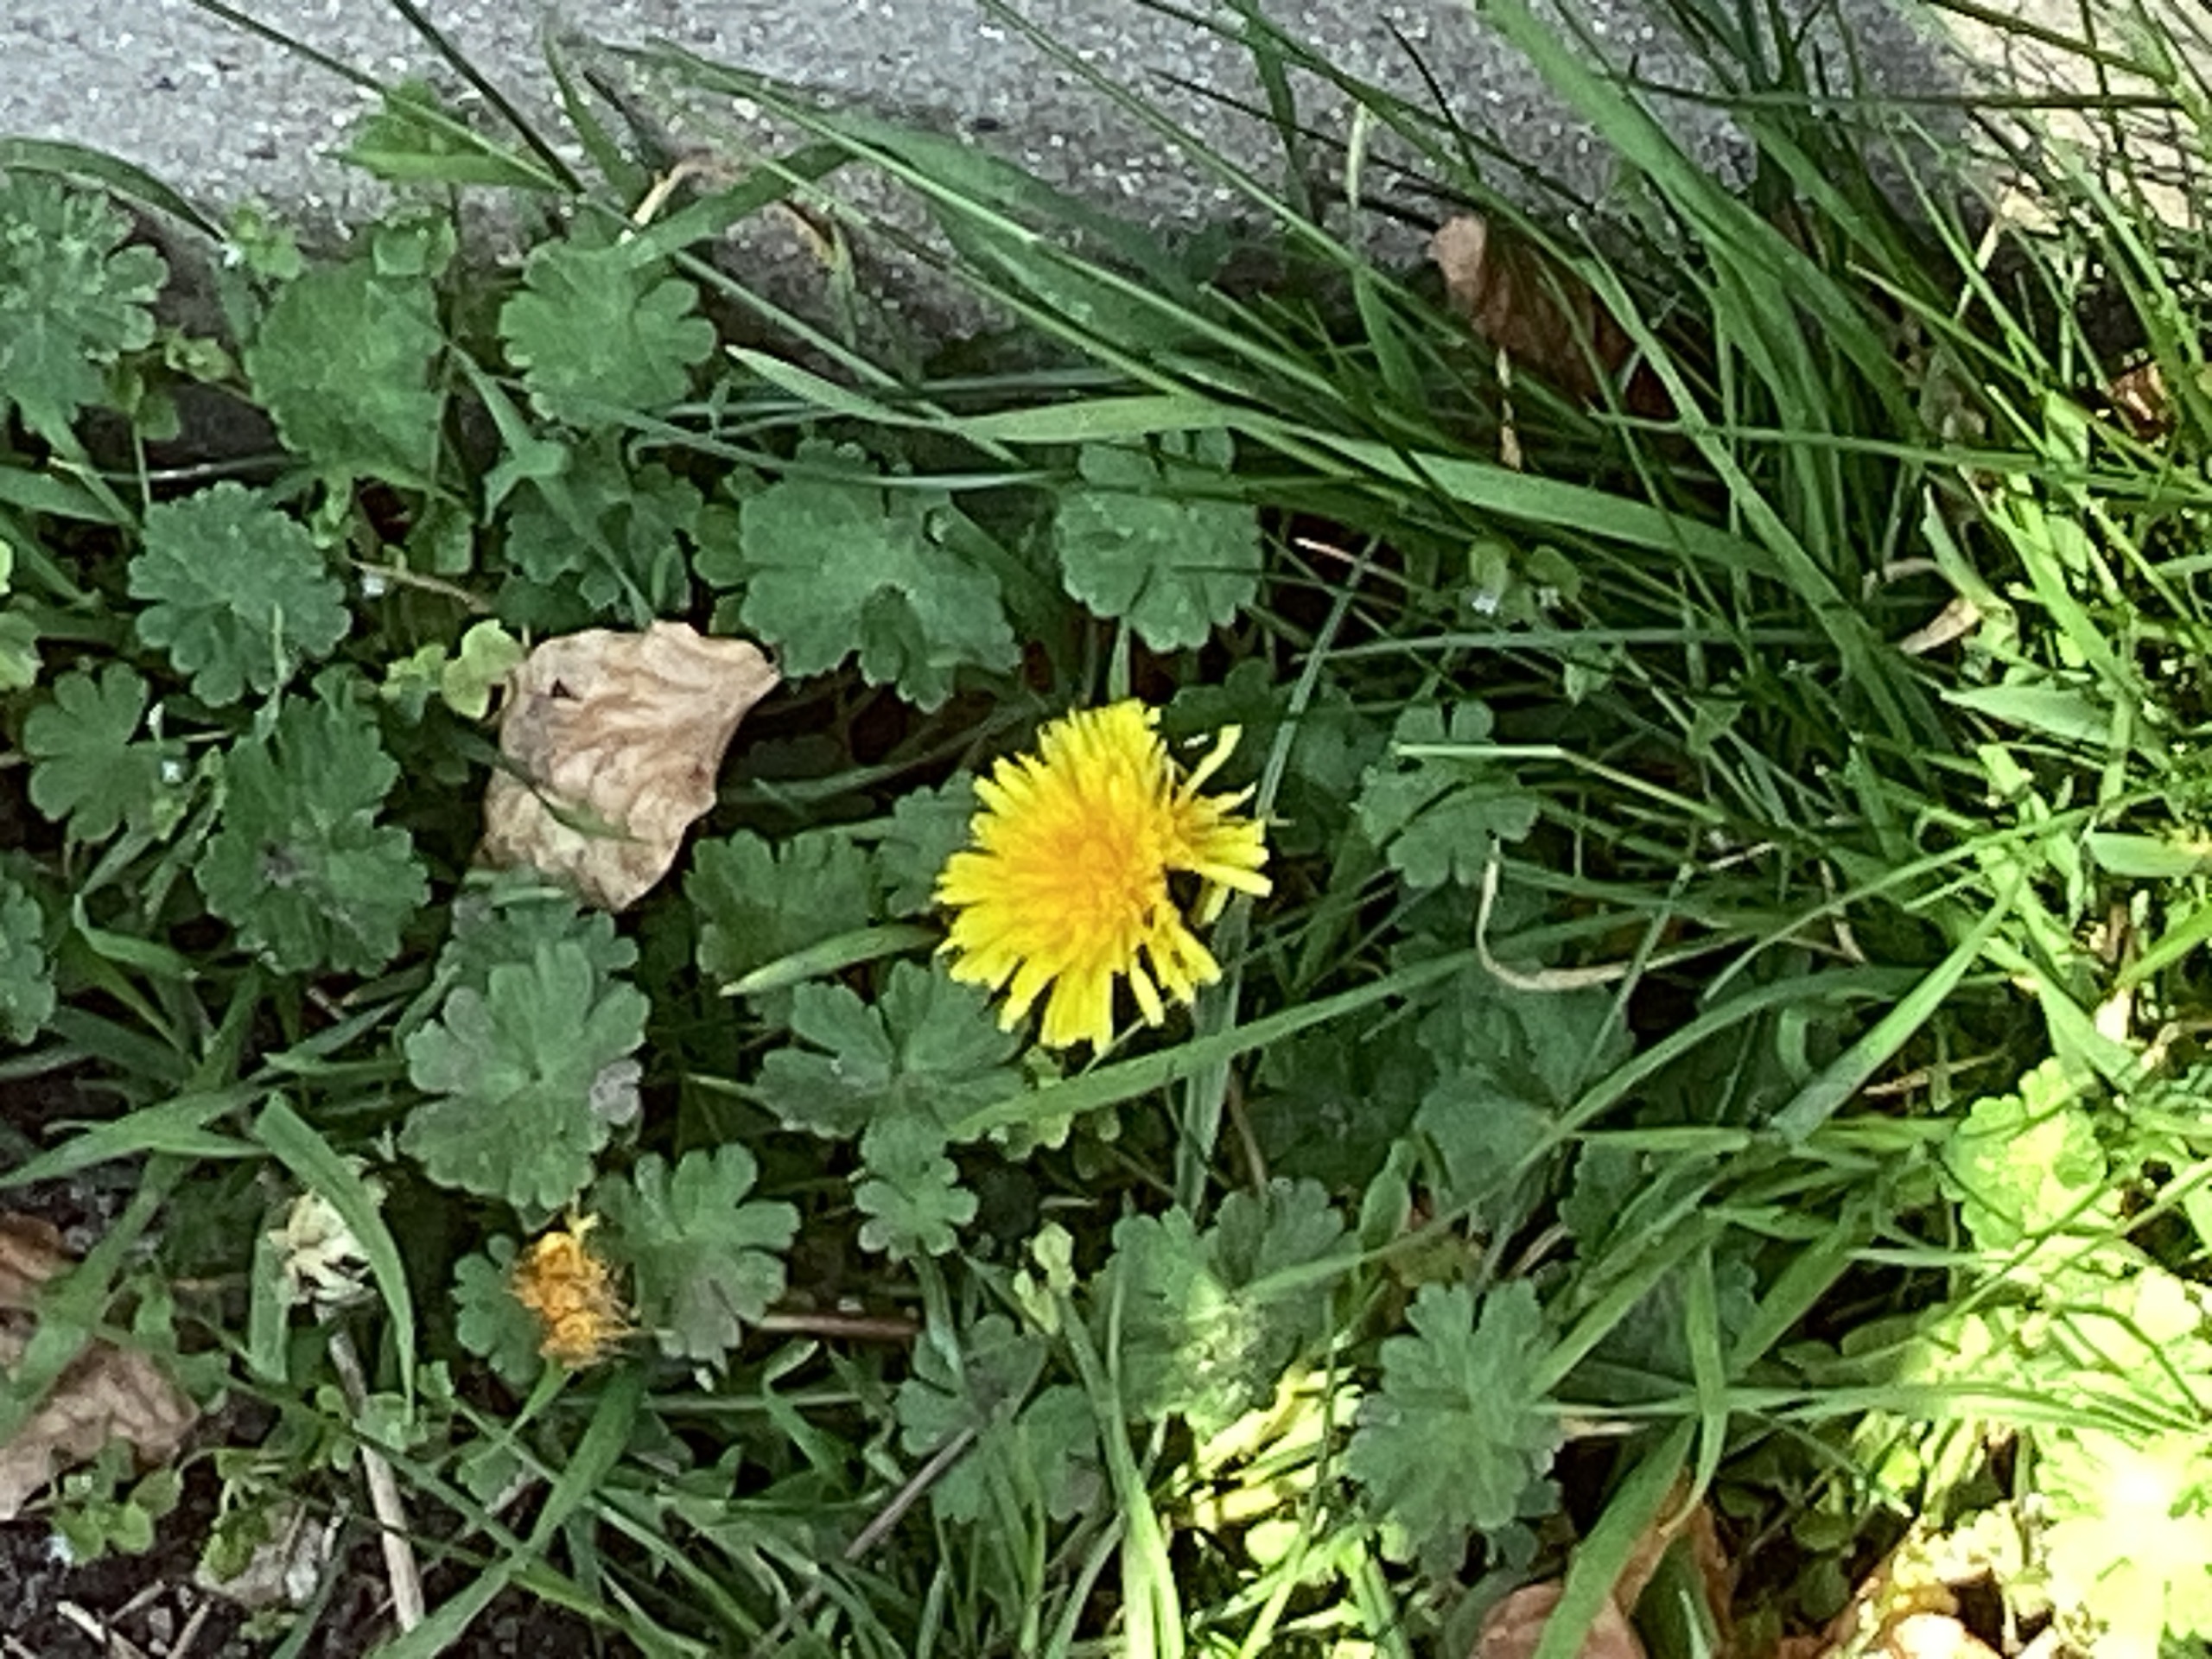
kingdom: Plantae
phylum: Tracheophyta
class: Magnoliopsida
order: Asterales
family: Asteraceae
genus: Taraxacum
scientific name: Taraxacum
